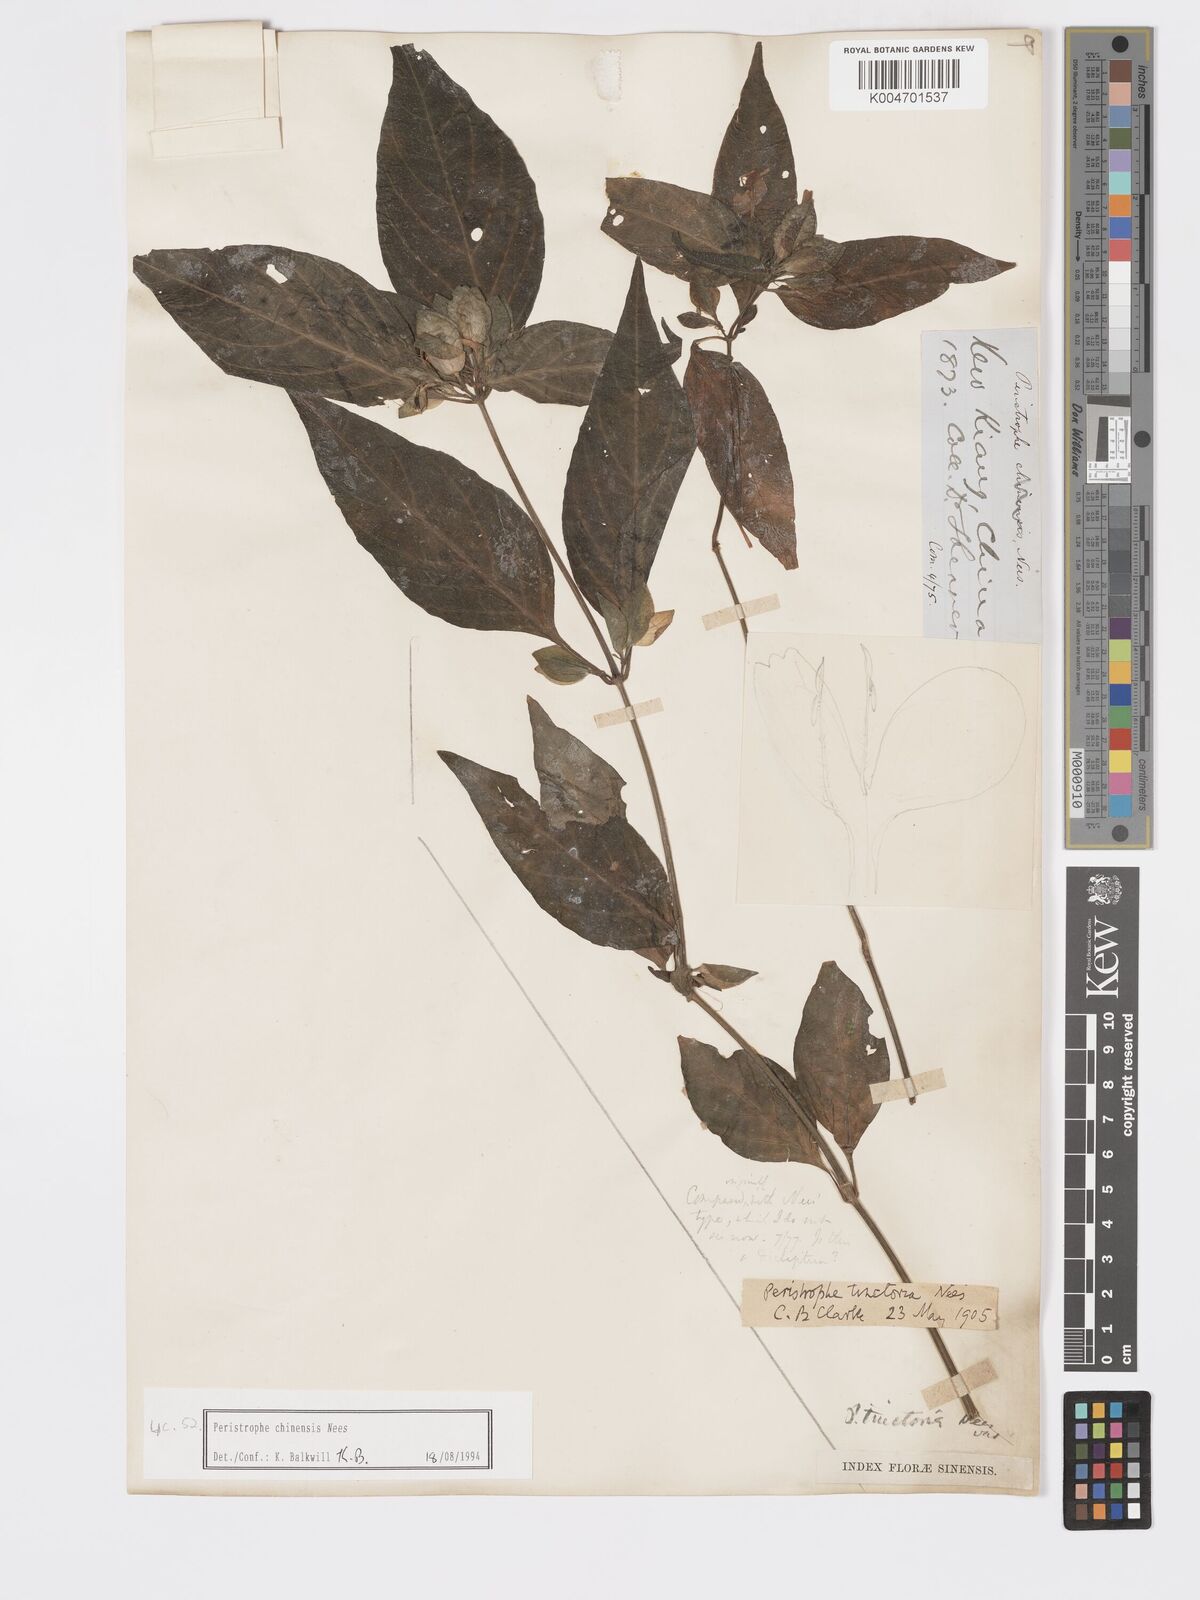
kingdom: Plantae
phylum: Tracheophyta
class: Magnoliopsida
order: Lamiales
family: Acanthaceae
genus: Dicliptera
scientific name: Dicliptera chinensis
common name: Chinese foldwing
